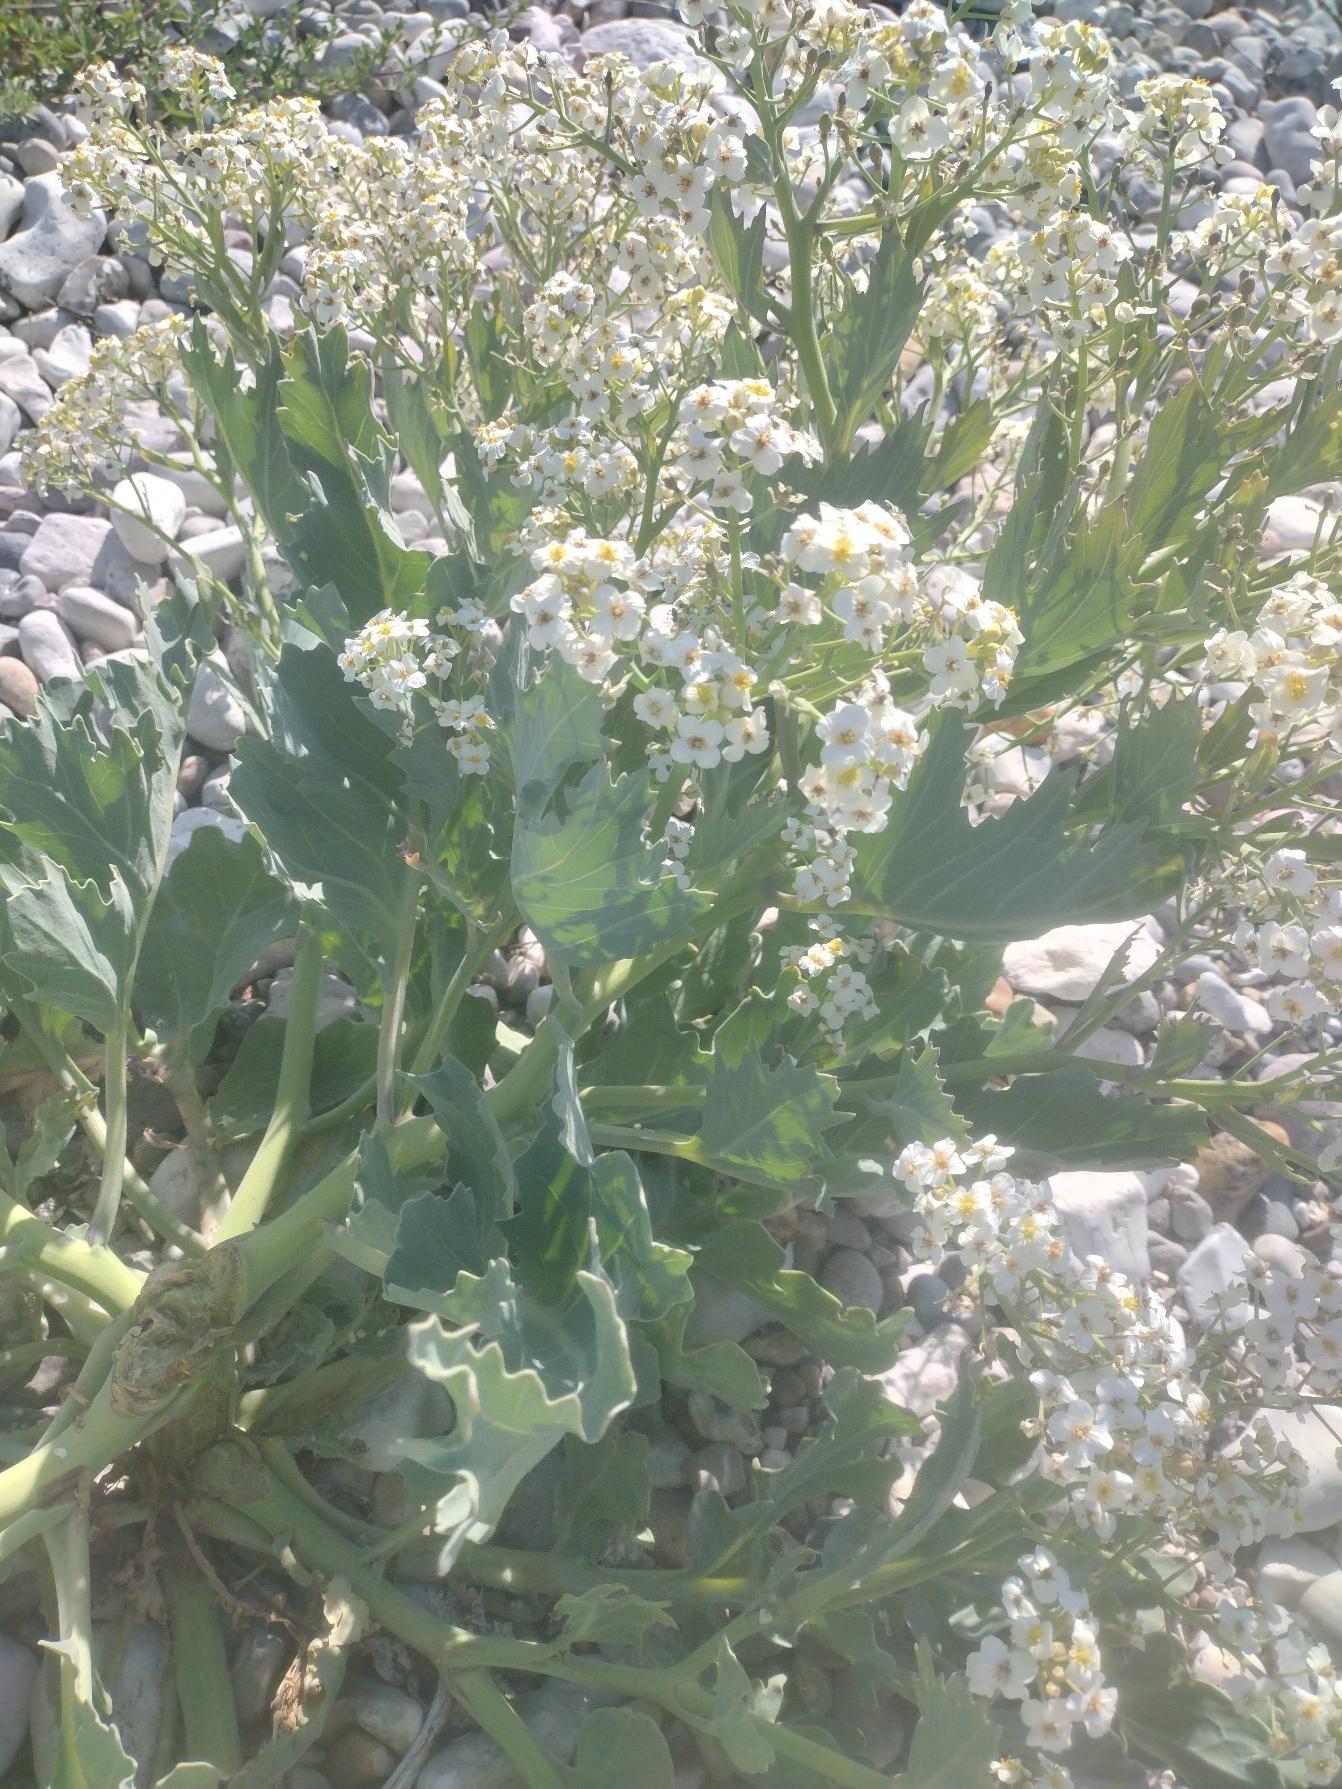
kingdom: Plantae
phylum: Tracheophyta
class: Magnoliopsida
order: Brassicales
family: Brassicaceae
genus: Crambe
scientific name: Crambe maritima
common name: Strandkål
